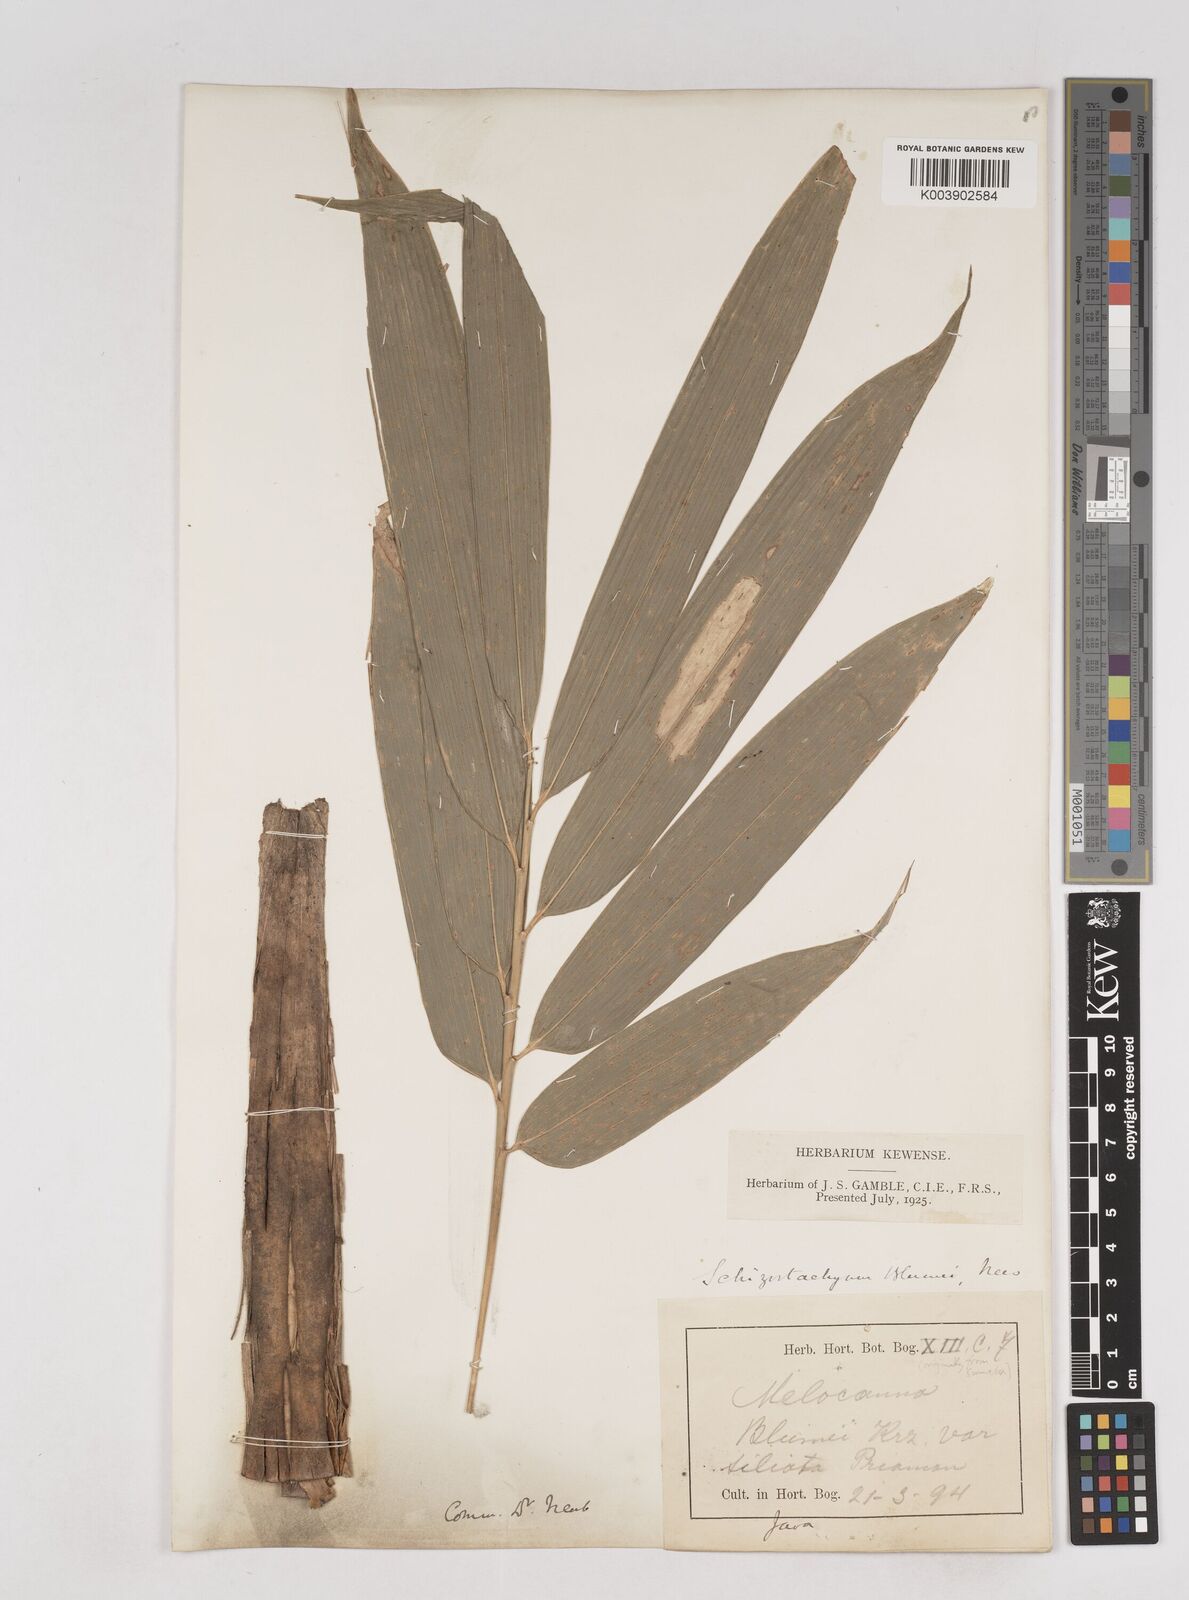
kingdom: Plantae
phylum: Tracheophyta
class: Liliopsida
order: Poales
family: Poaceae
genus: Schizostachyum
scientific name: Schizostachyum
